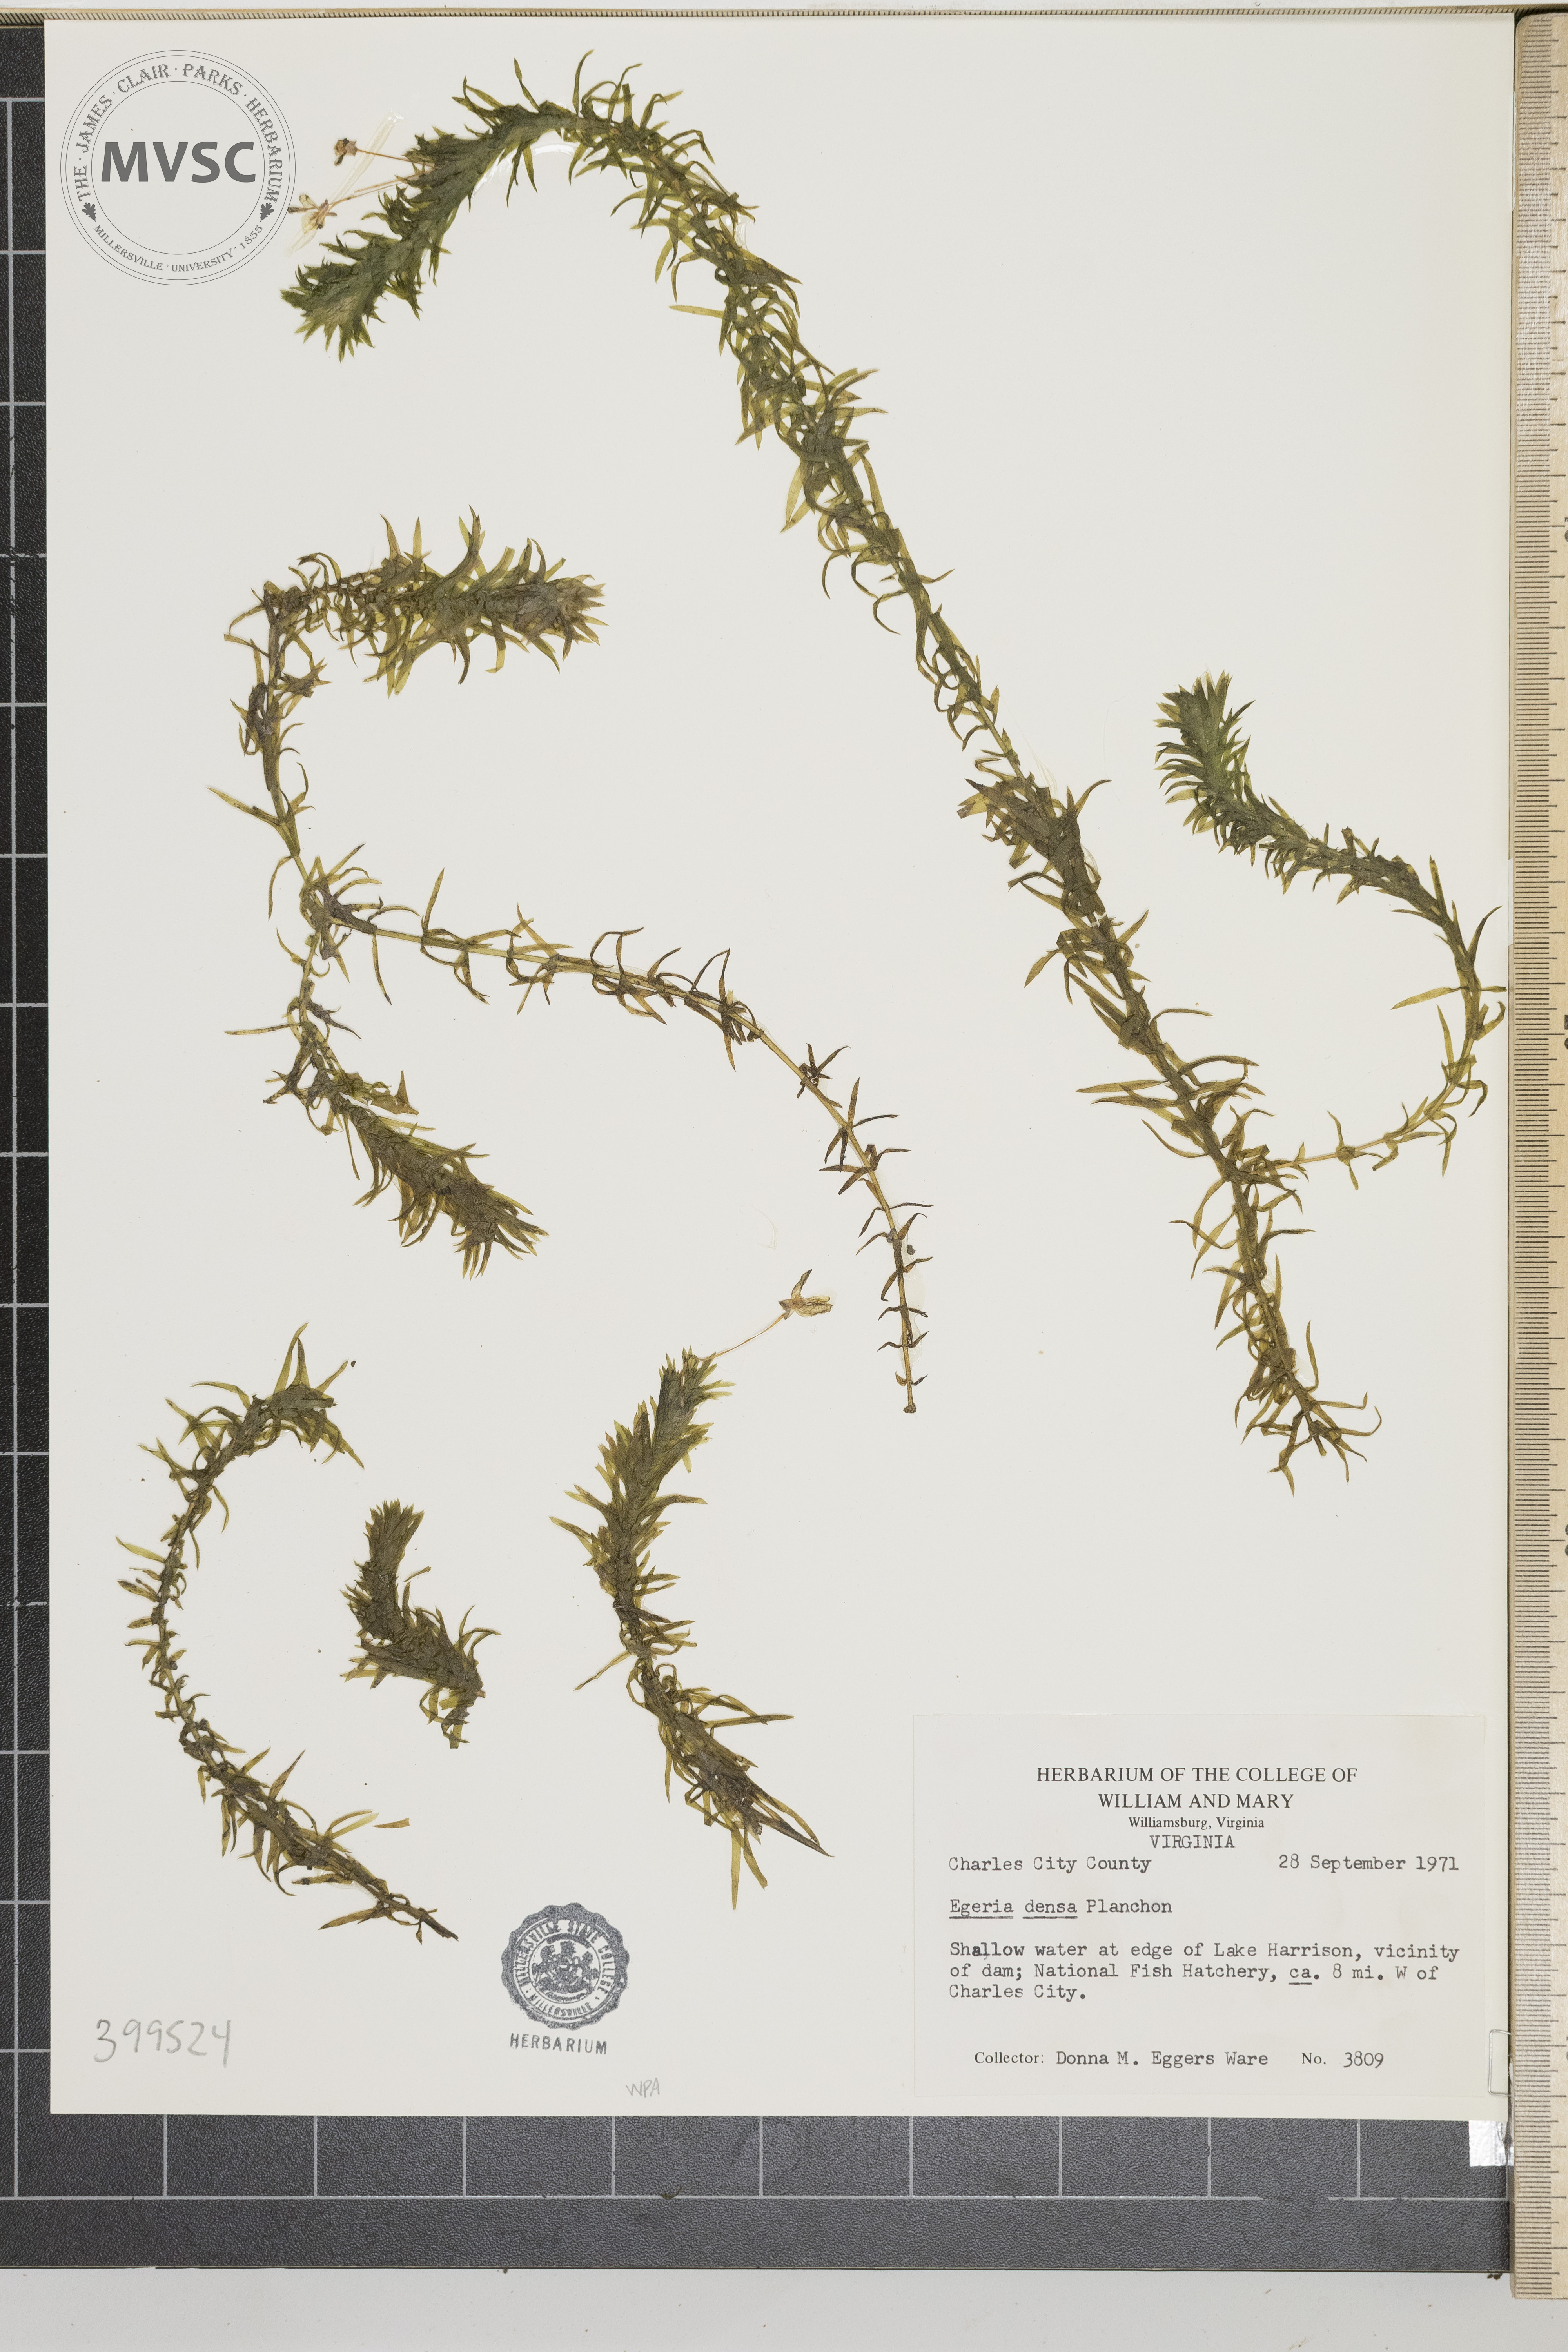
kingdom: Plantae
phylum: Tracheophyta
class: Liliopsida
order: Alismatales
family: Hydrocharitaceae
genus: Elodea
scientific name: Elodea densa
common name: Brazilian waterweed
